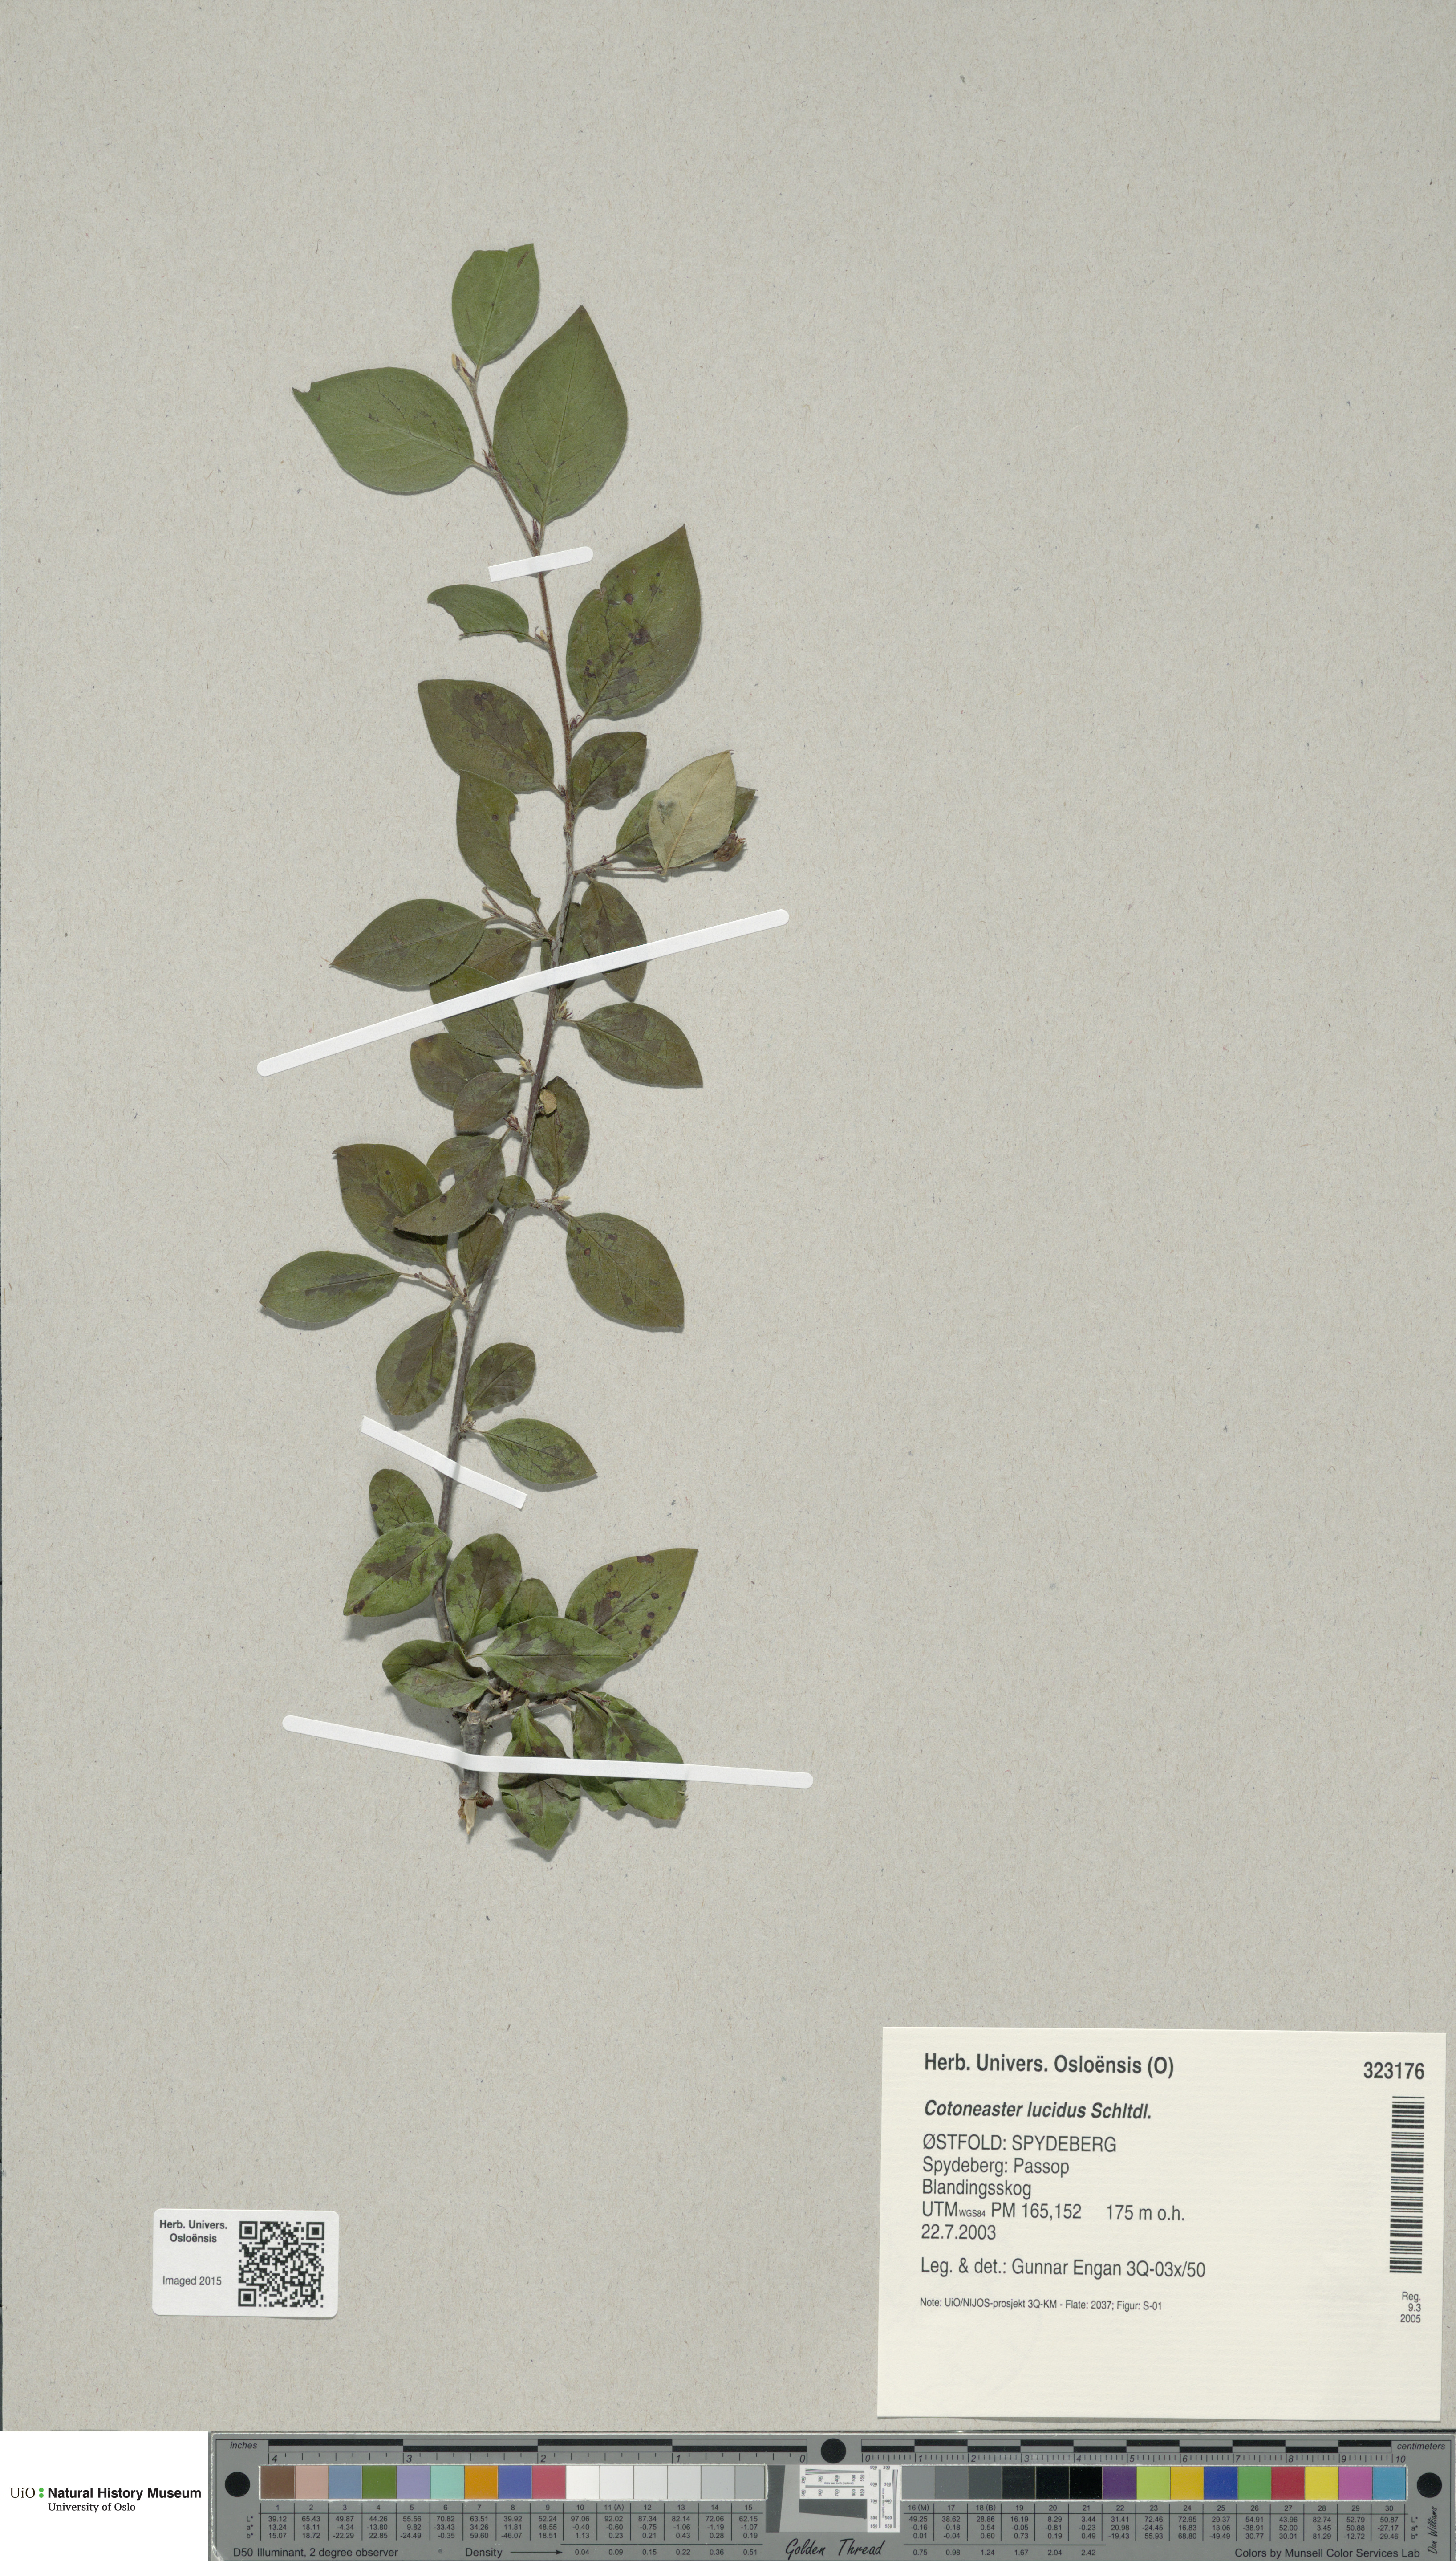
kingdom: Plantae
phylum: Tracheophyta
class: Magnoliopsida
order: Rosales
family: Rosaceae
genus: Cotoneaster
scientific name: Cotoneaster acutifolius
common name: Peking cotoneaster
